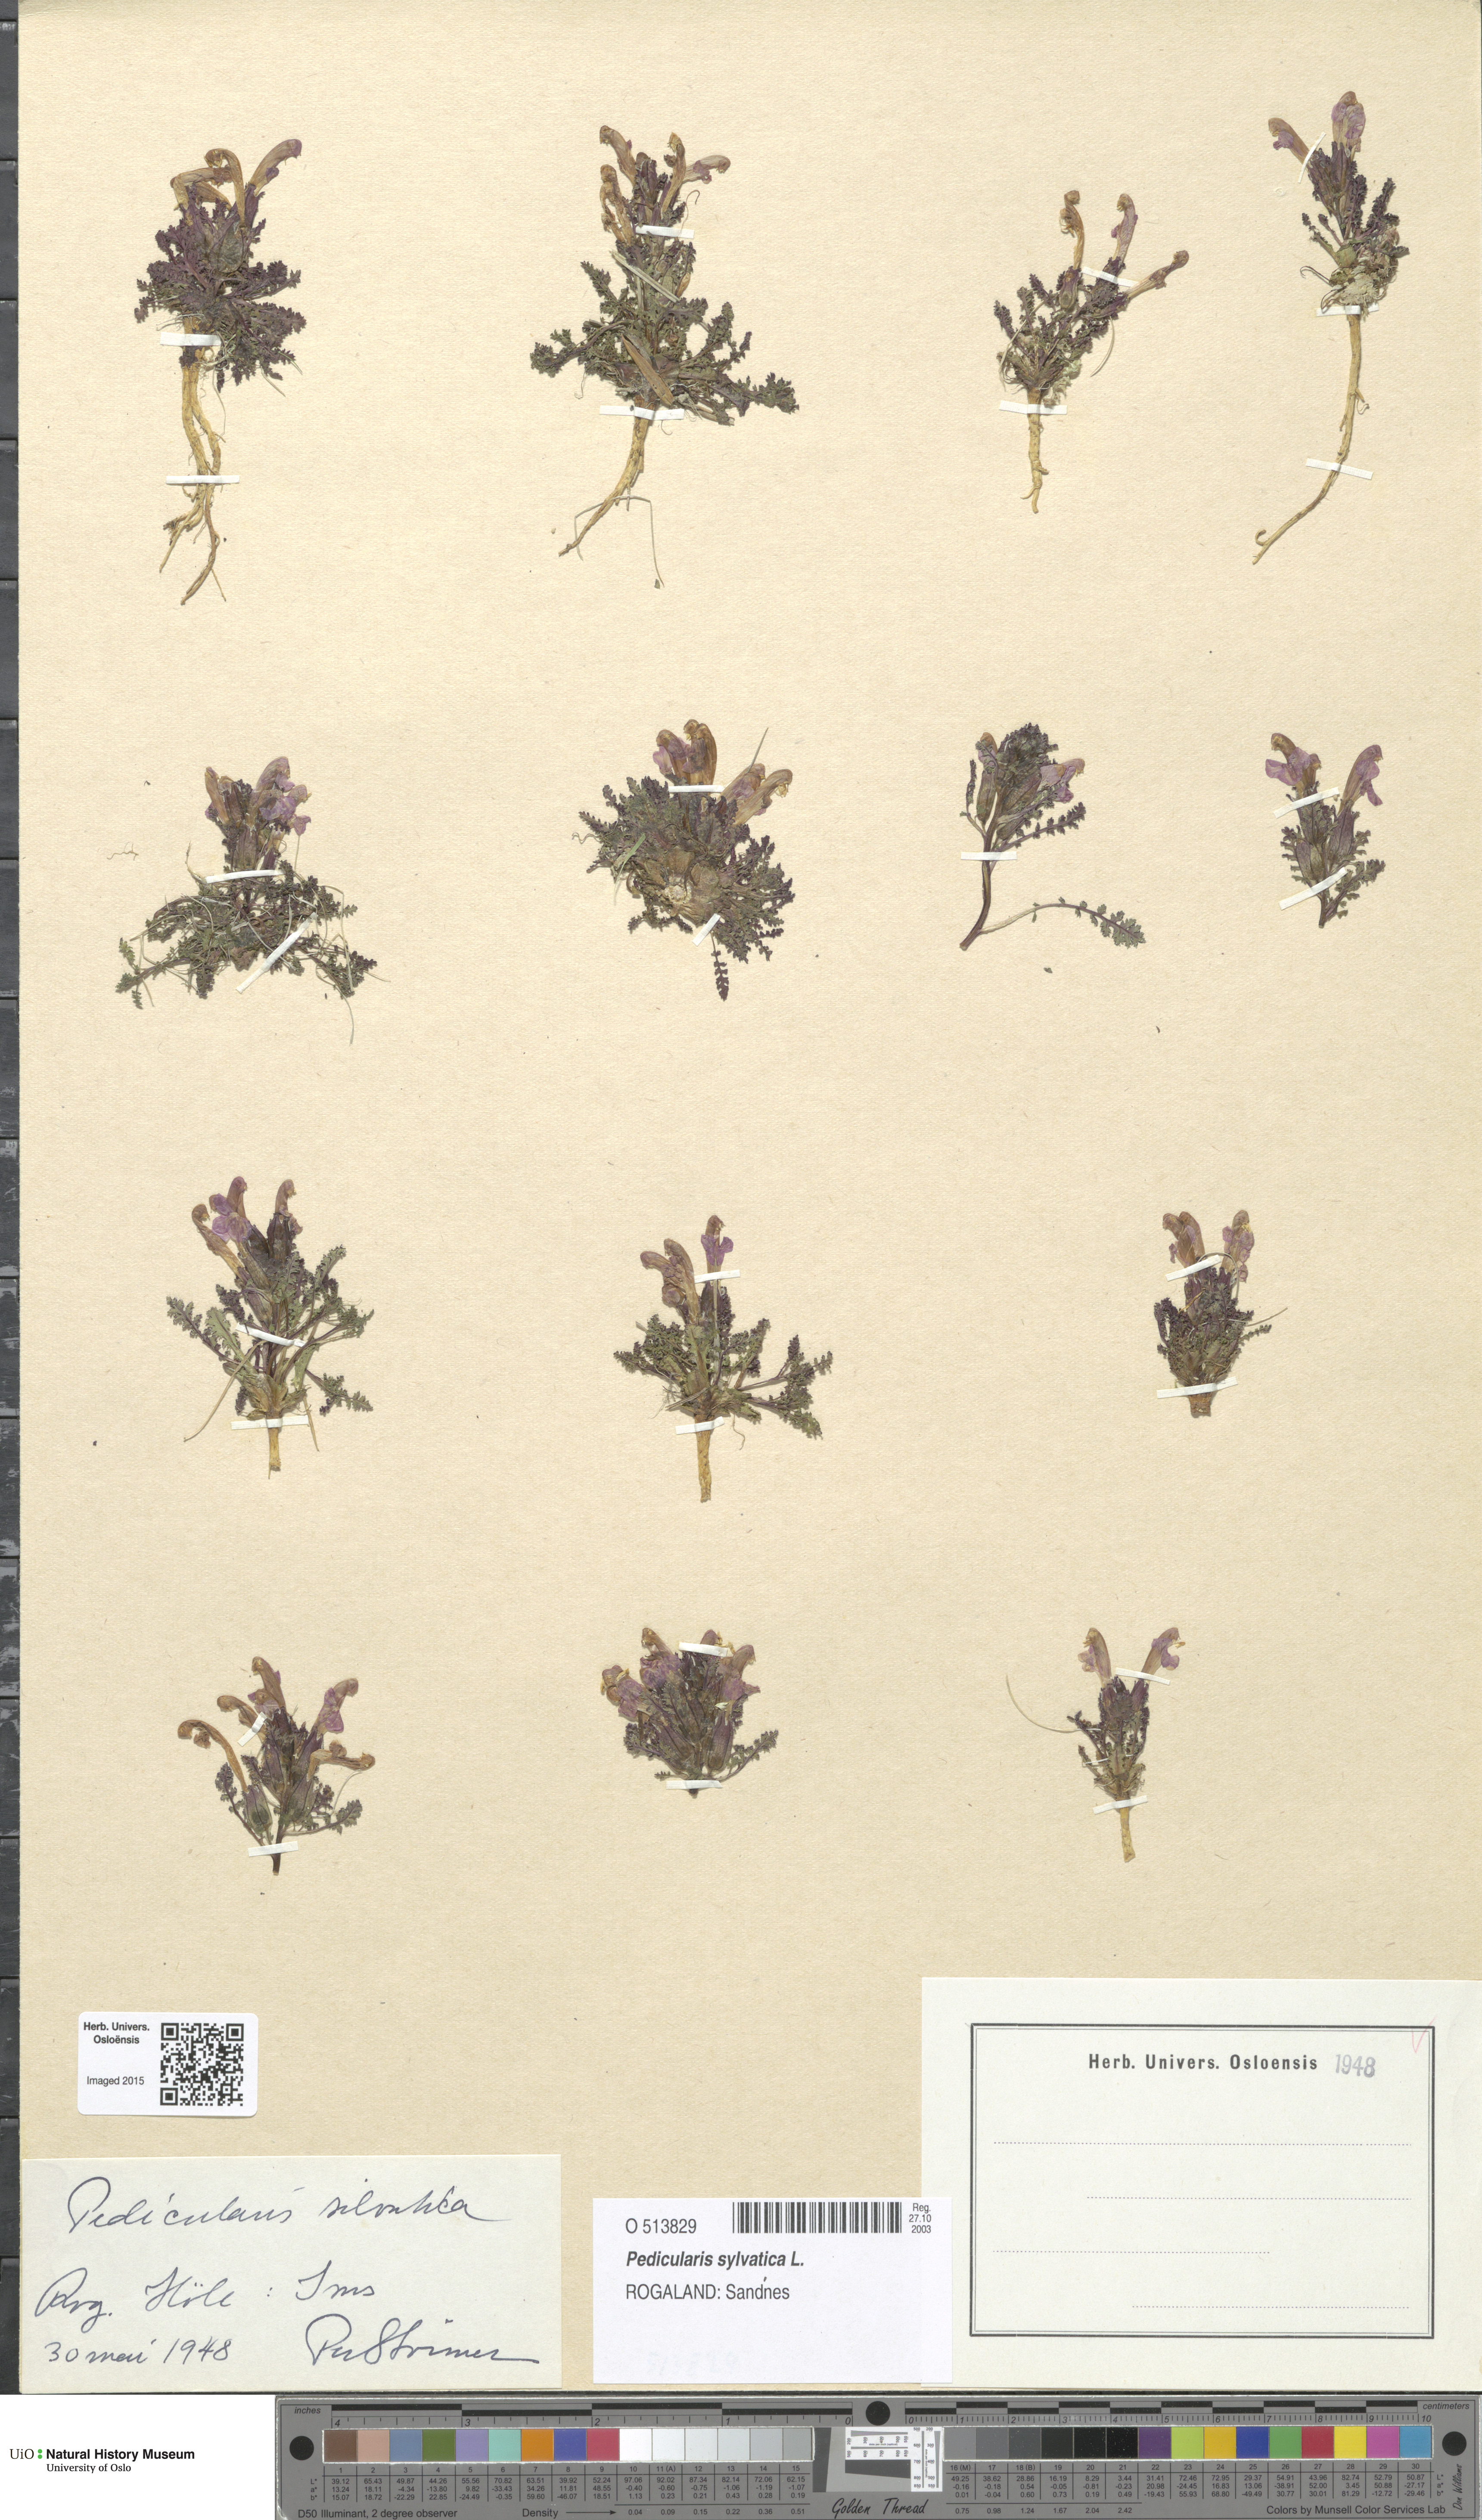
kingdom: Plantae
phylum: Tracheophyta
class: Magnoliopsida
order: Lamiales
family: Orobanchaceae
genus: Pedicularis
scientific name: Pedicularis sylvatica
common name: Lousewort
